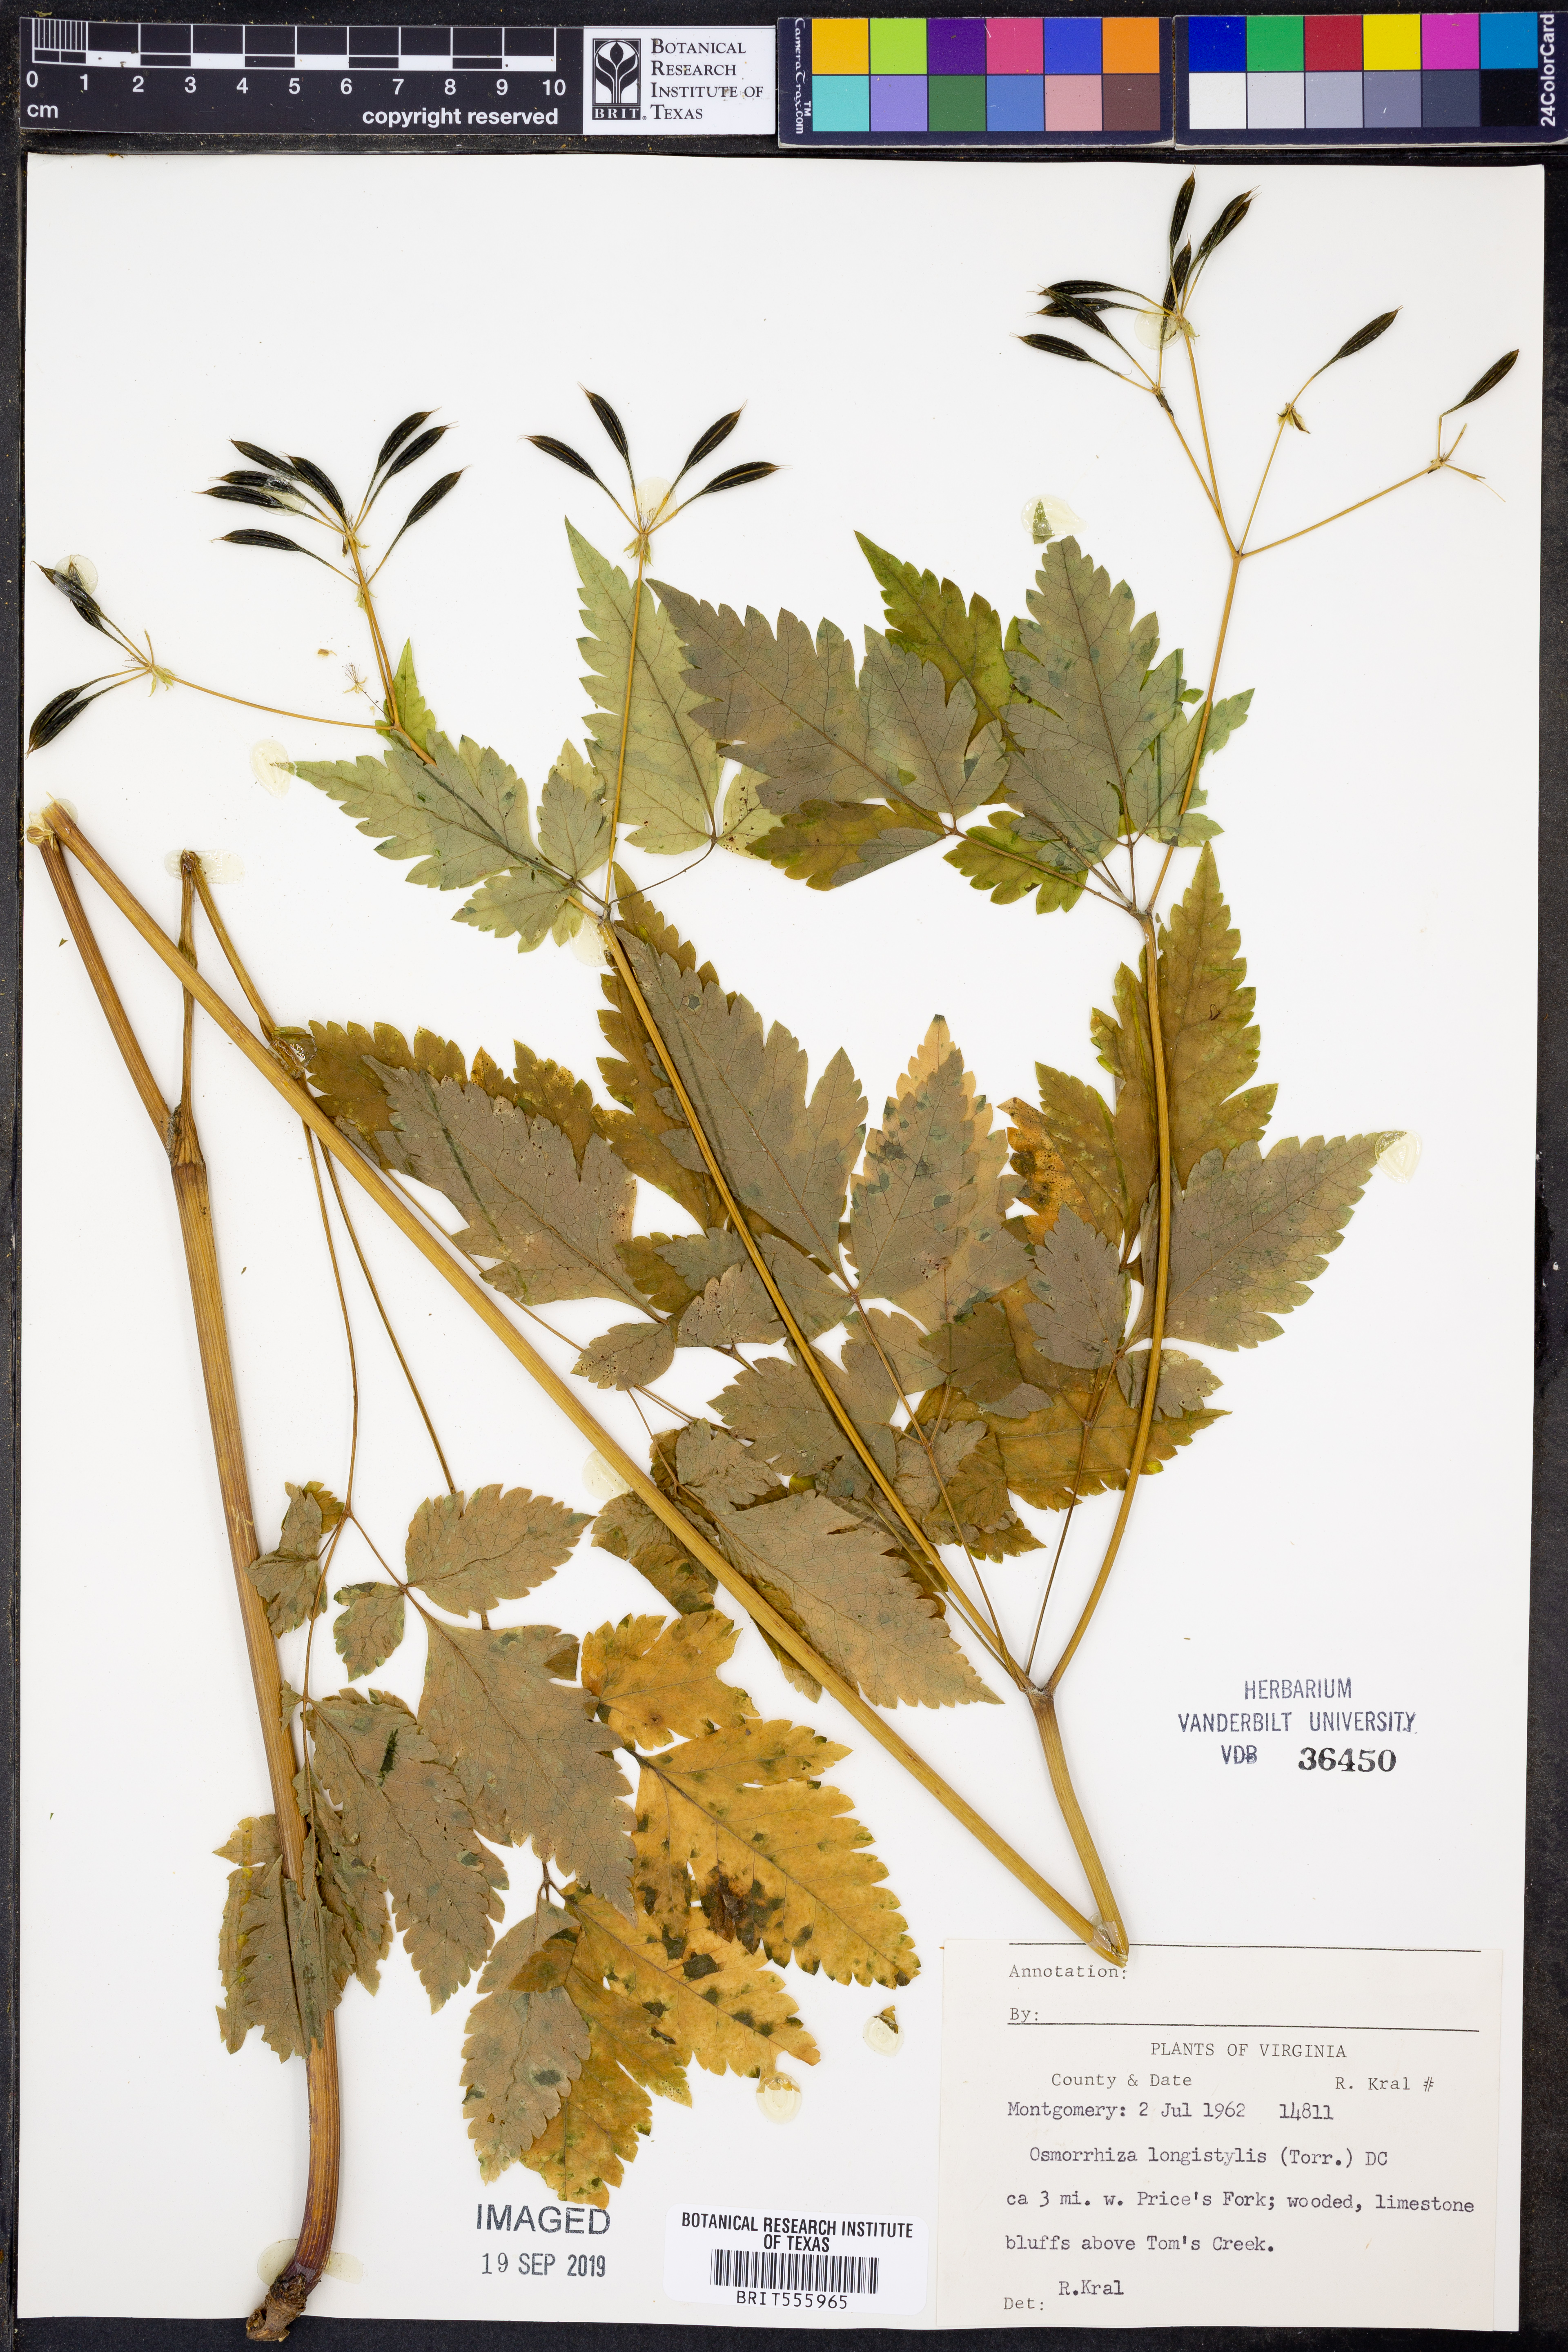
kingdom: Plantae
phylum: Tracheophyta
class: Magnoliopsida
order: Apiales
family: Apiaceae
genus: Osmorhiza
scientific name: Osmorhiza longistylis
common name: Smooth sweet cicely
